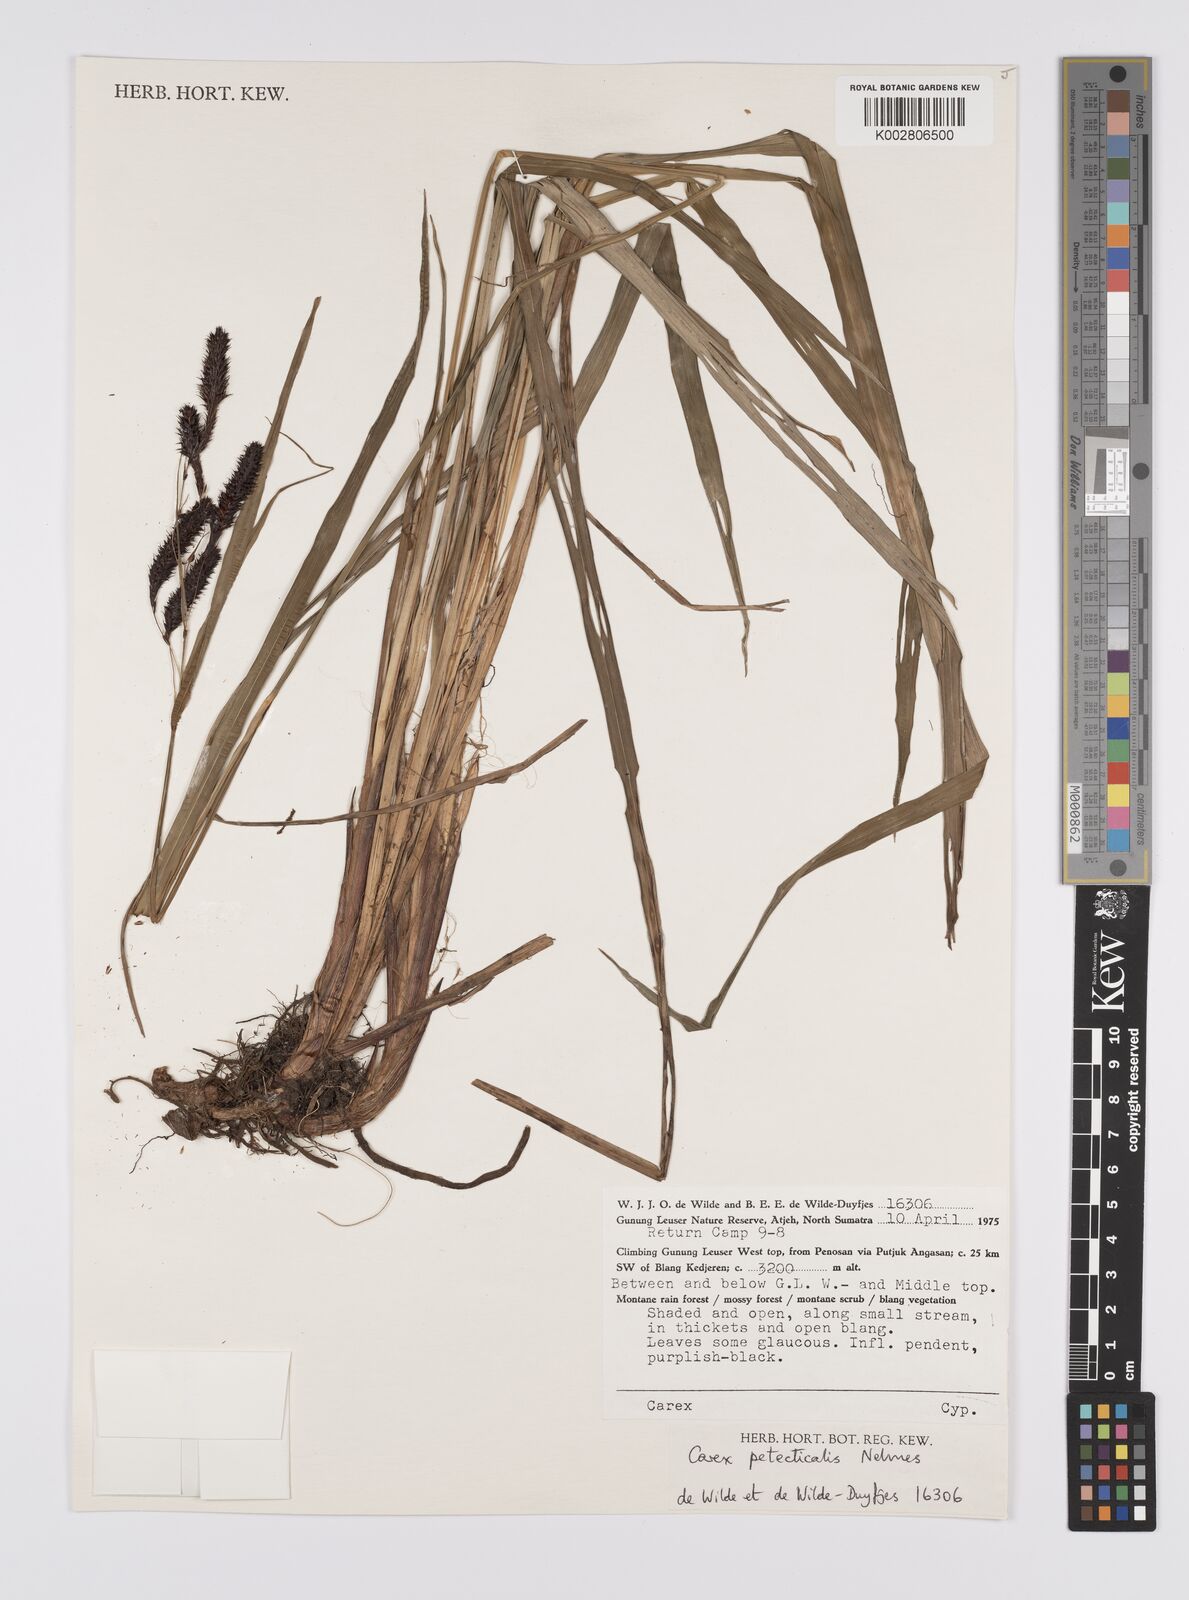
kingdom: Plantae
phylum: Tracheophyta
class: Liliopsida
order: Poales
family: Cyperaceae
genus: Carex
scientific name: Carex teres
